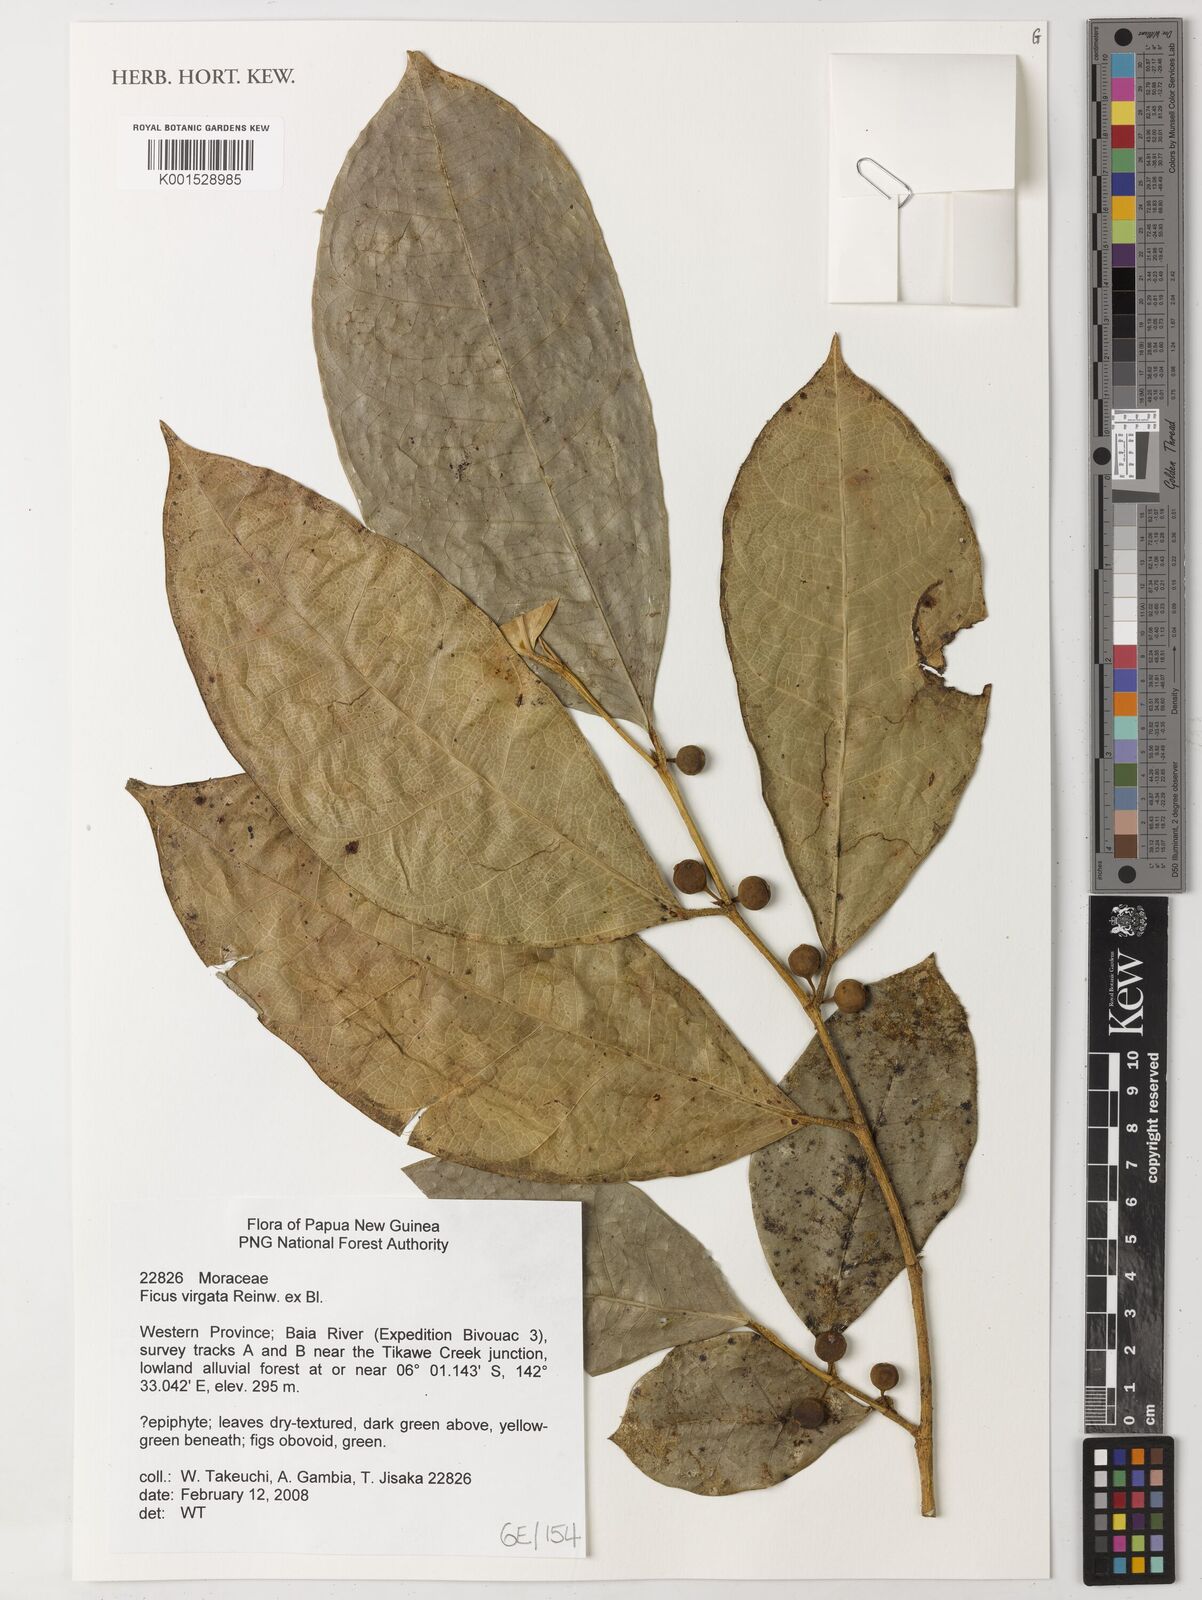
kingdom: Plantae
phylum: Tracheophyta
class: Magnoliopsida
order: Rosales
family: Moraceae
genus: Ficus
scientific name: Ficus virgata
